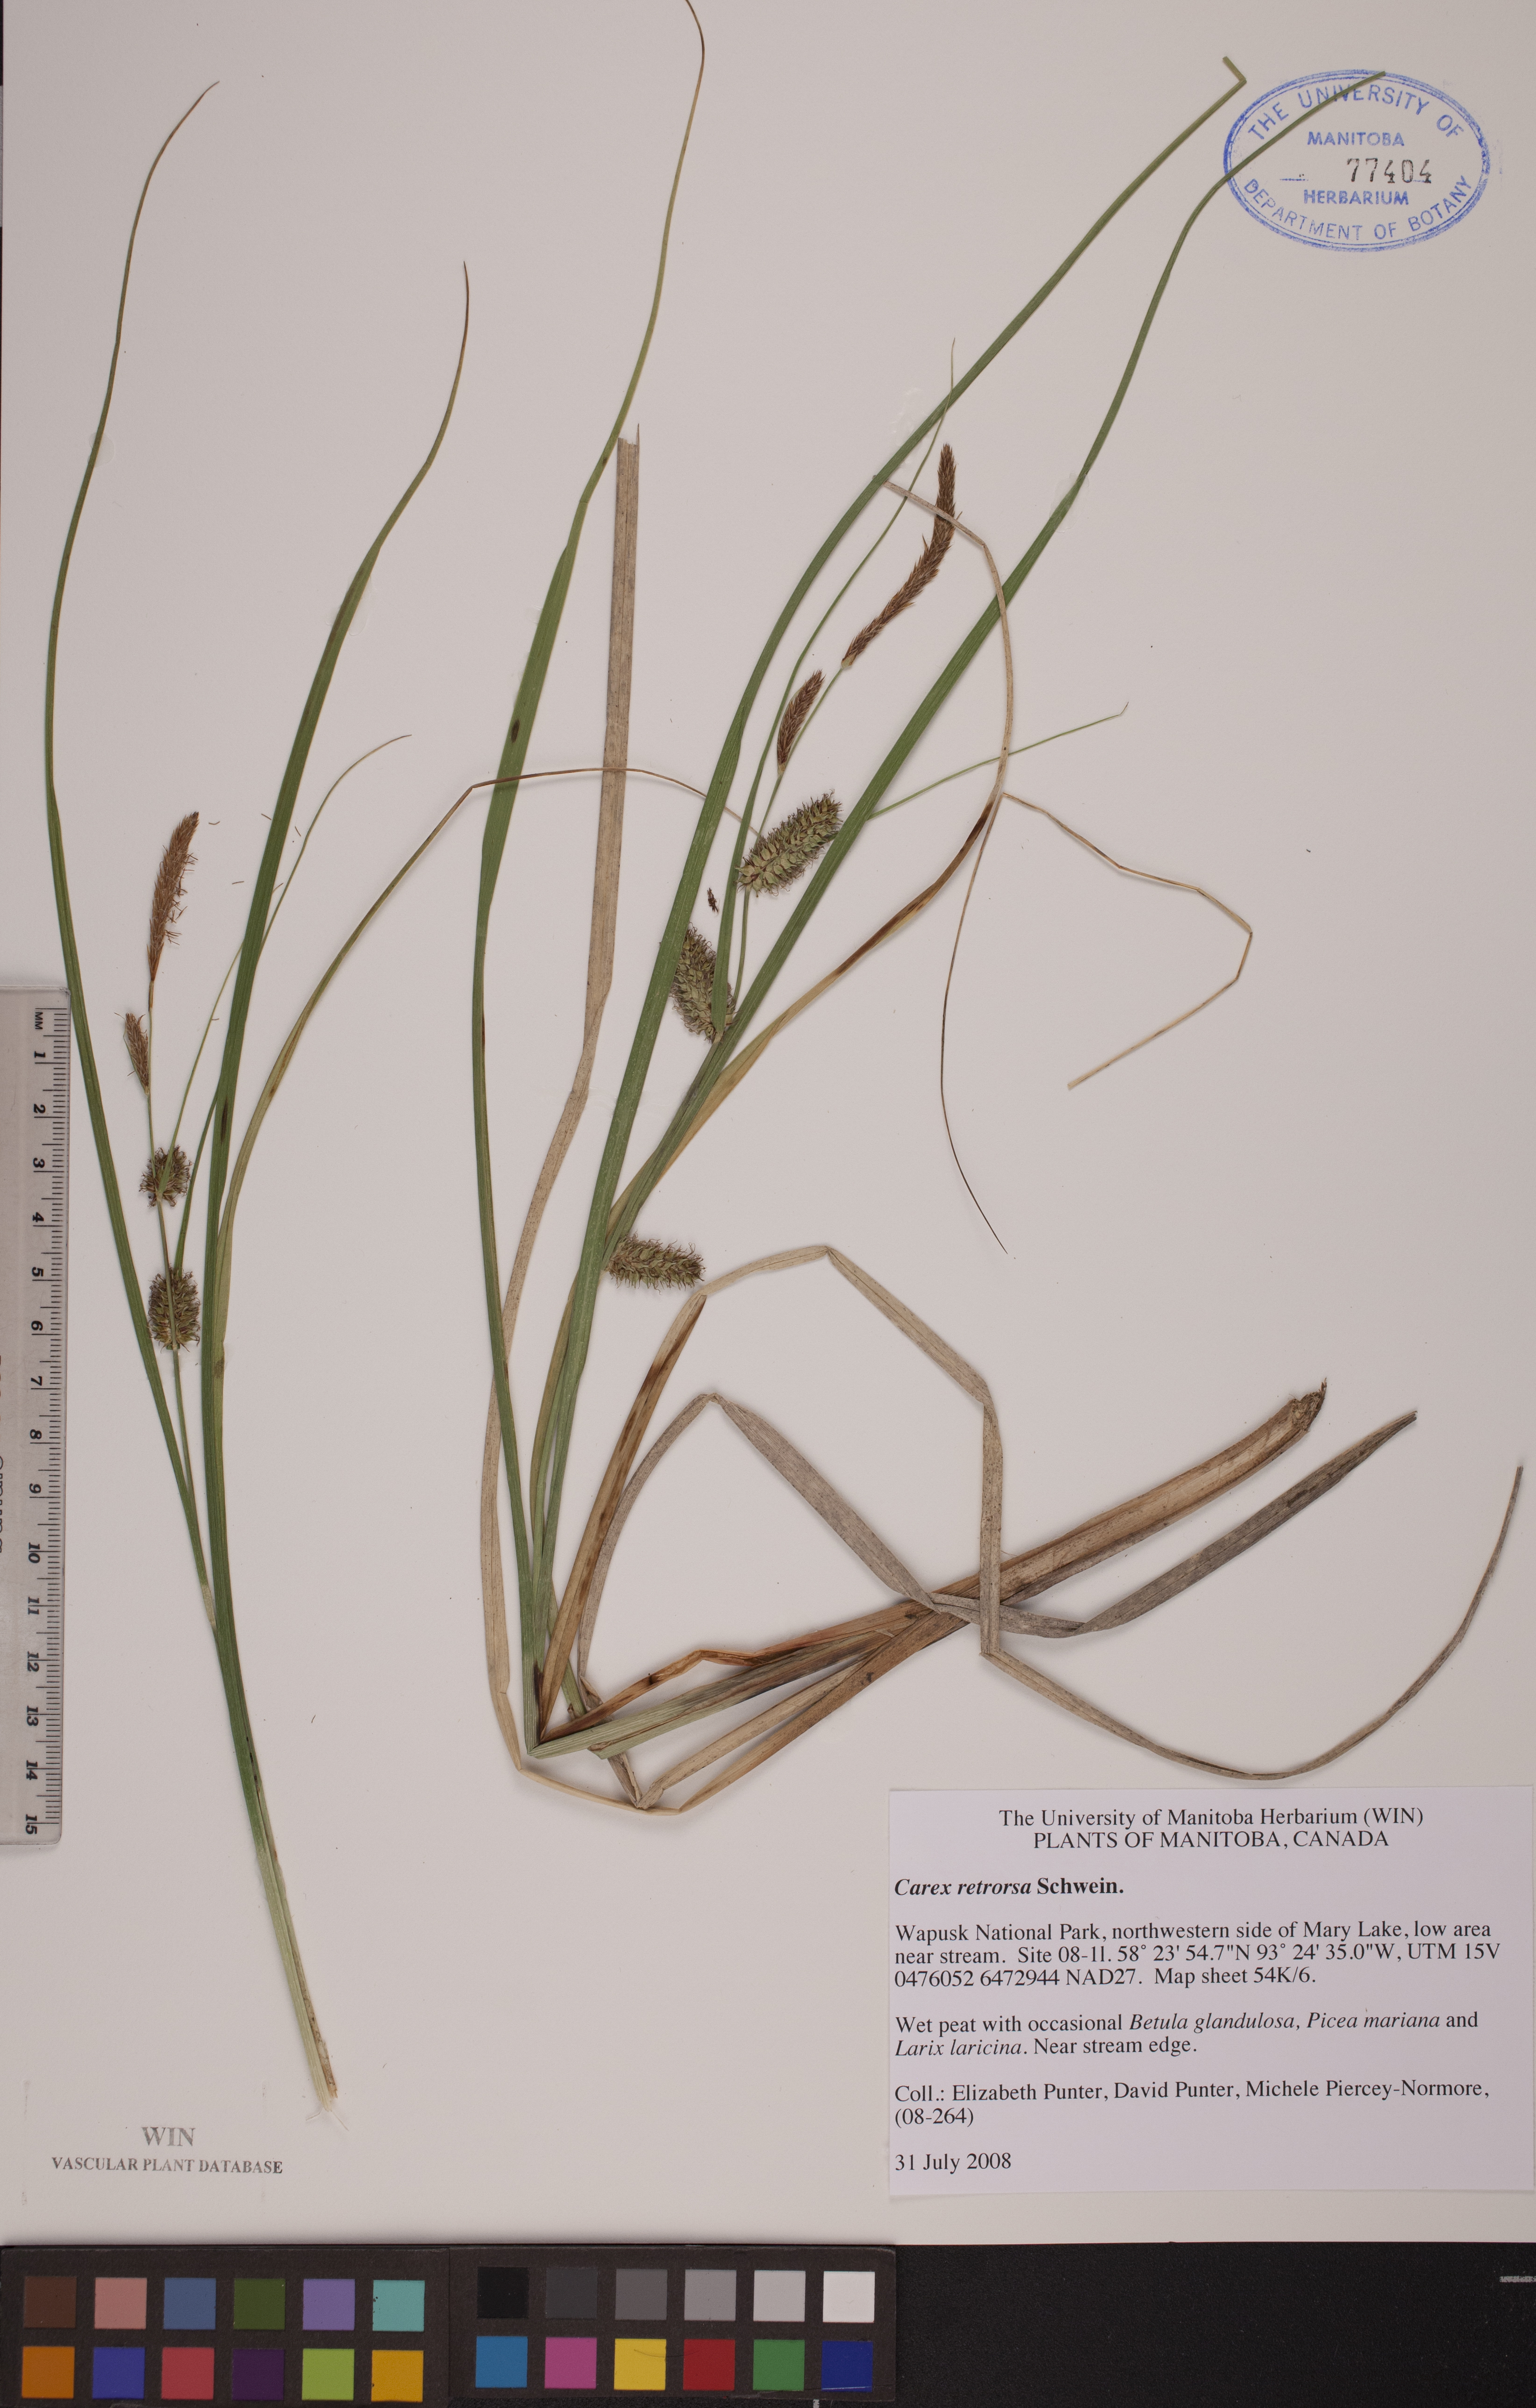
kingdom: Plantae
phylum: Tracheophyta
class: Liliopsida
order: Poales
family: Cyperaceae
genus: Carex
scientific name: Carex retrorsa
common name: Knot-sheath sedge
